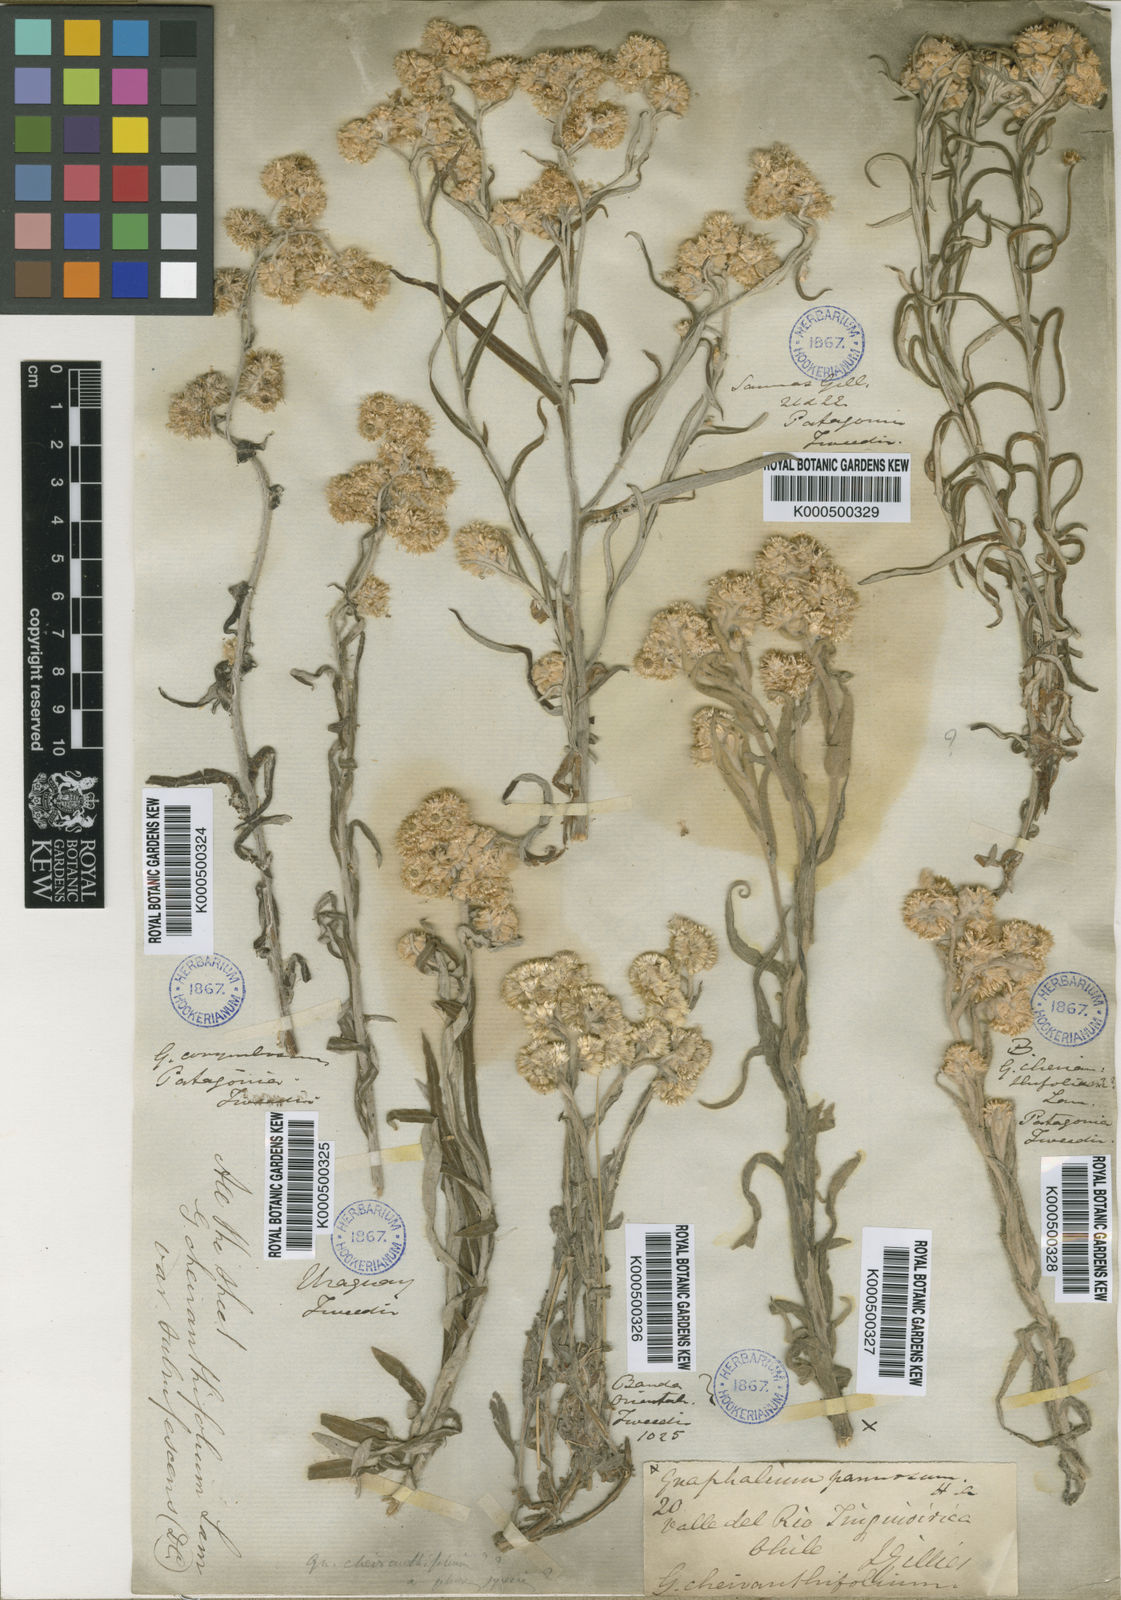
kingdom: Plantae
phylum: Tracheophyta
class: Magnoliopsida
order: Asterales
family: Asteraceae
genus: Pseudognaphalium
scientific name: Pseudognaphalium cheiranthifolium
